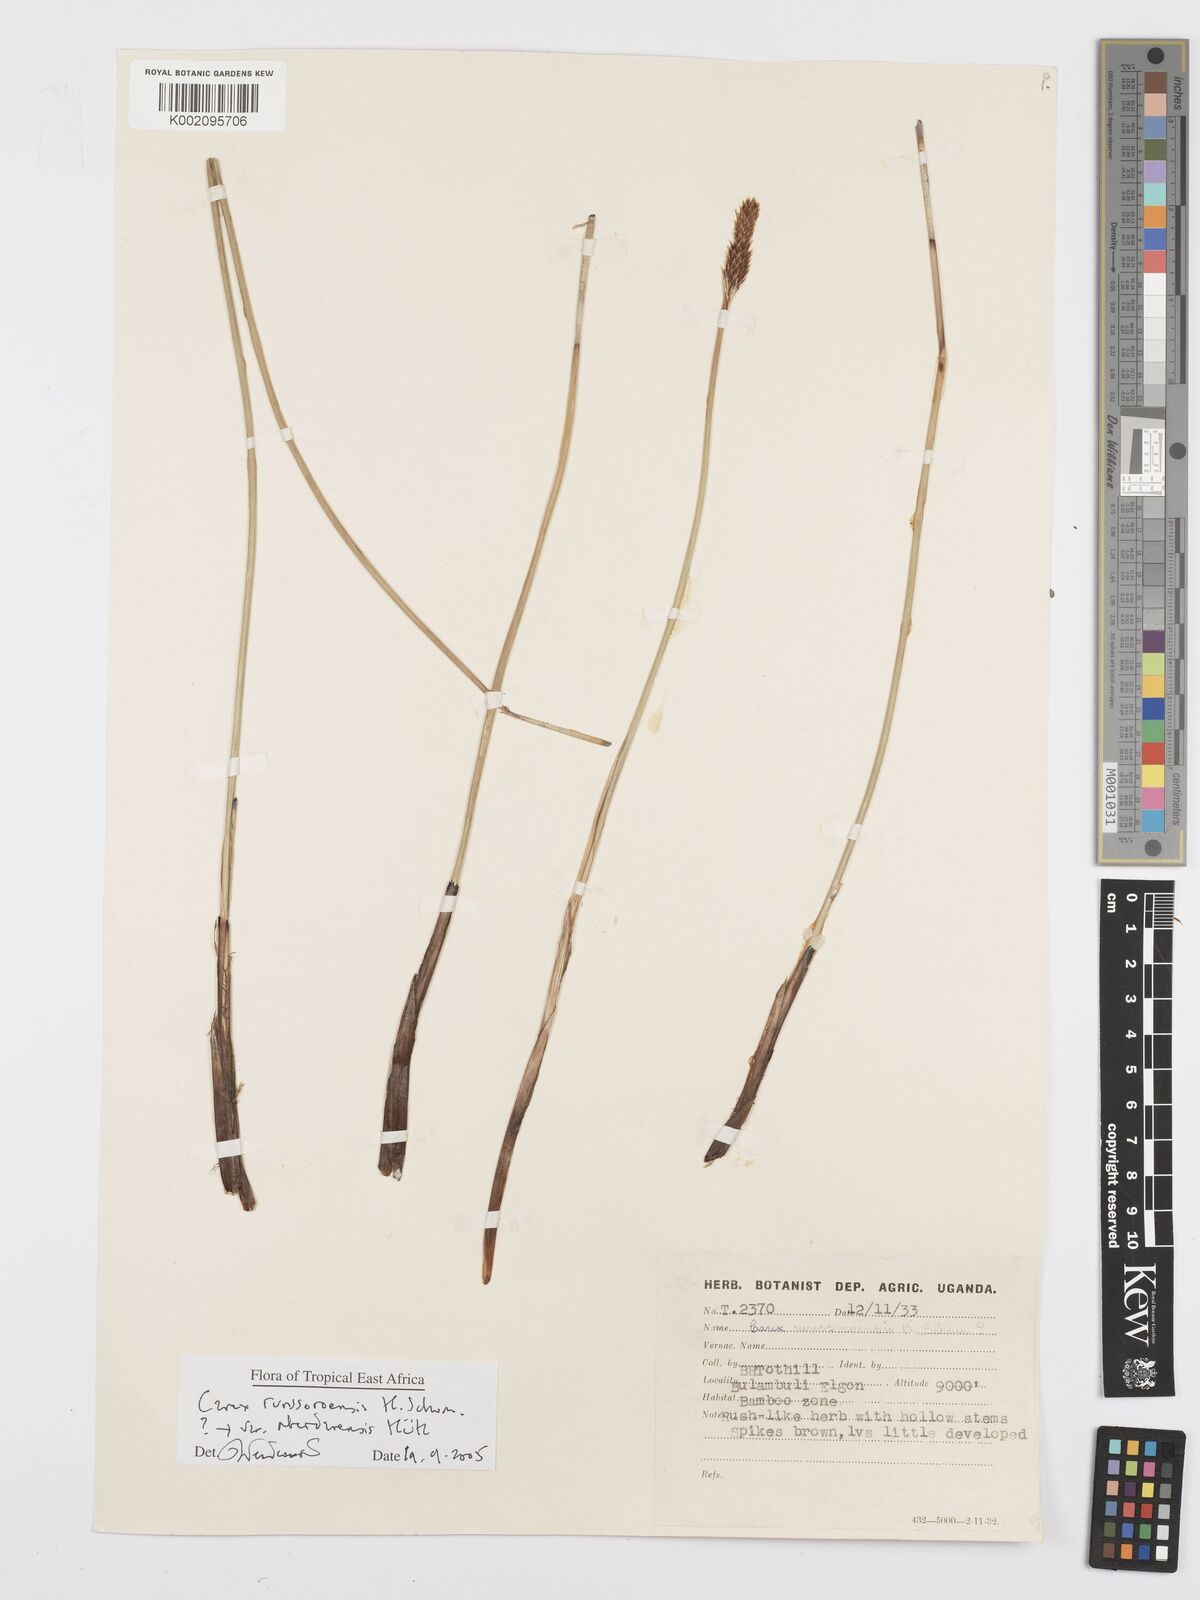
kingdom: Plantae
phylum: Tracheophyta
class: Liliopsida
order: Poales
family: Cyperaceae
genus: Carex
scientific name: Carex runssoroensis
